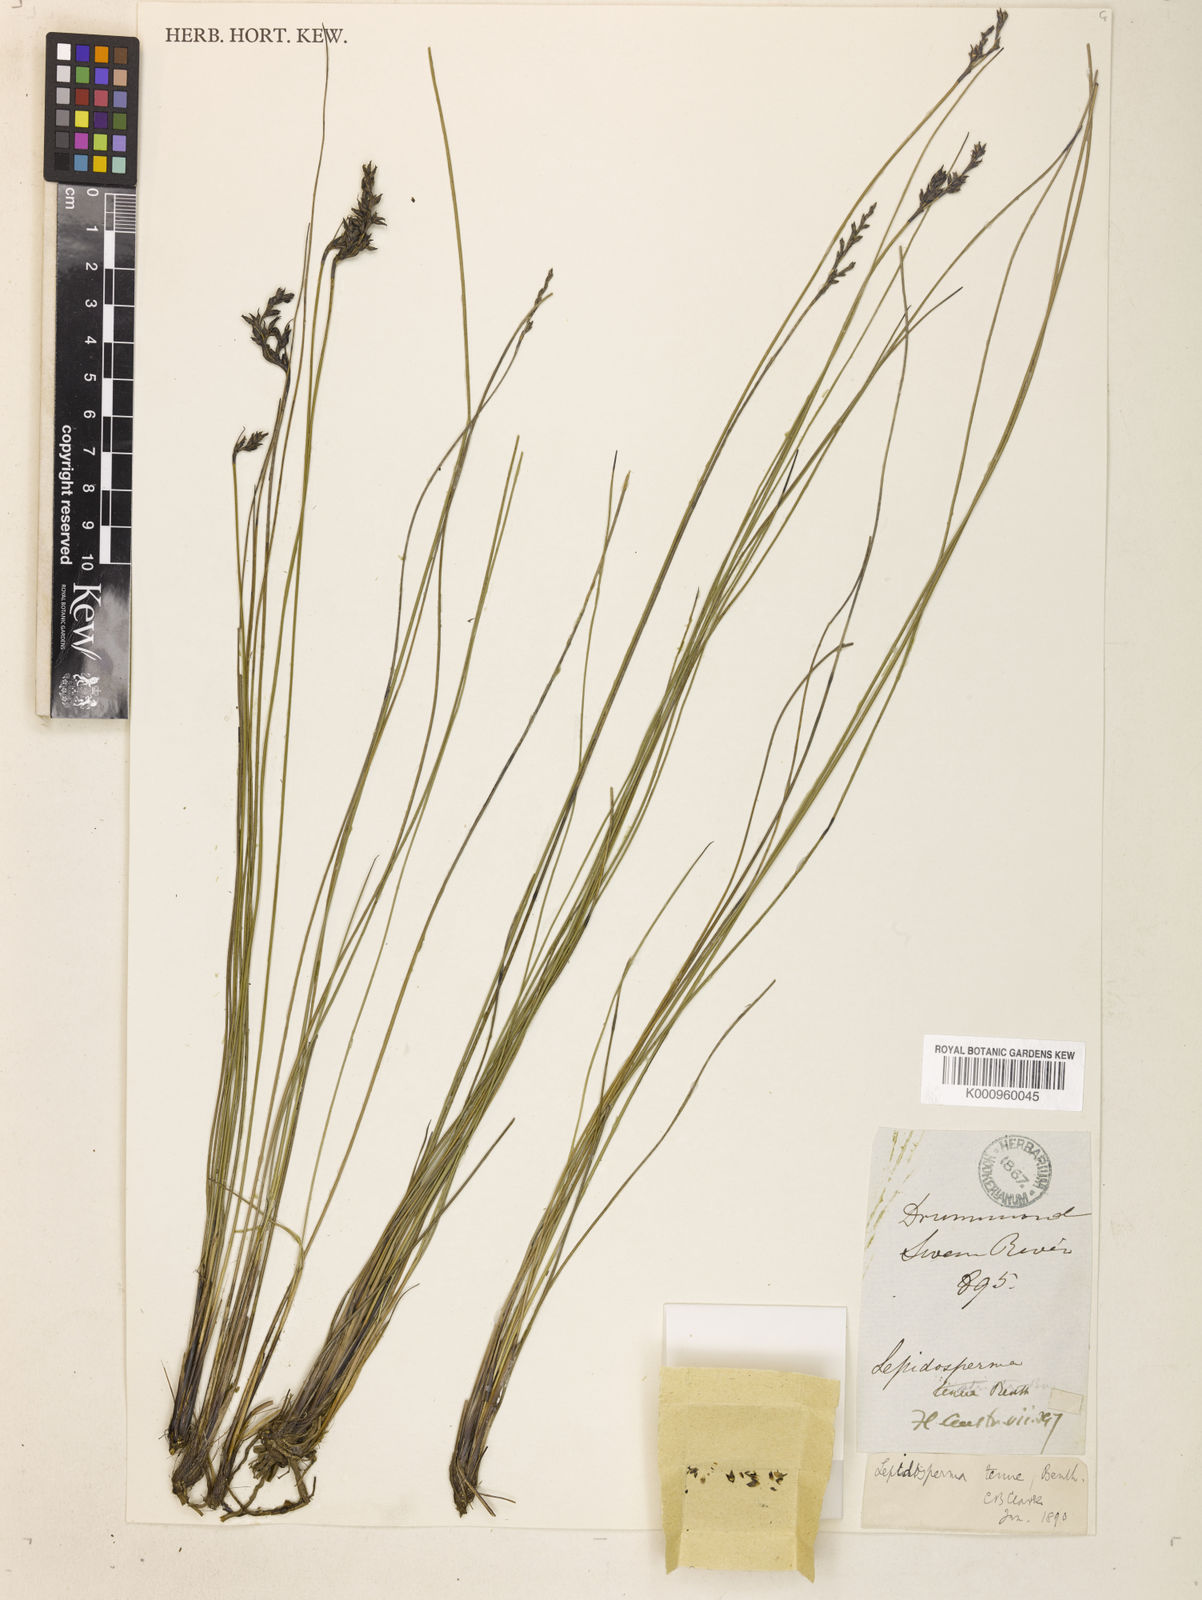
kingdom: Plantae
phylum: Tracheophyta
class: Liliopsida
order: Poales
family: Cyperaceae
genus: Lepidosperma
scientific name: Lepidosperma tenue
